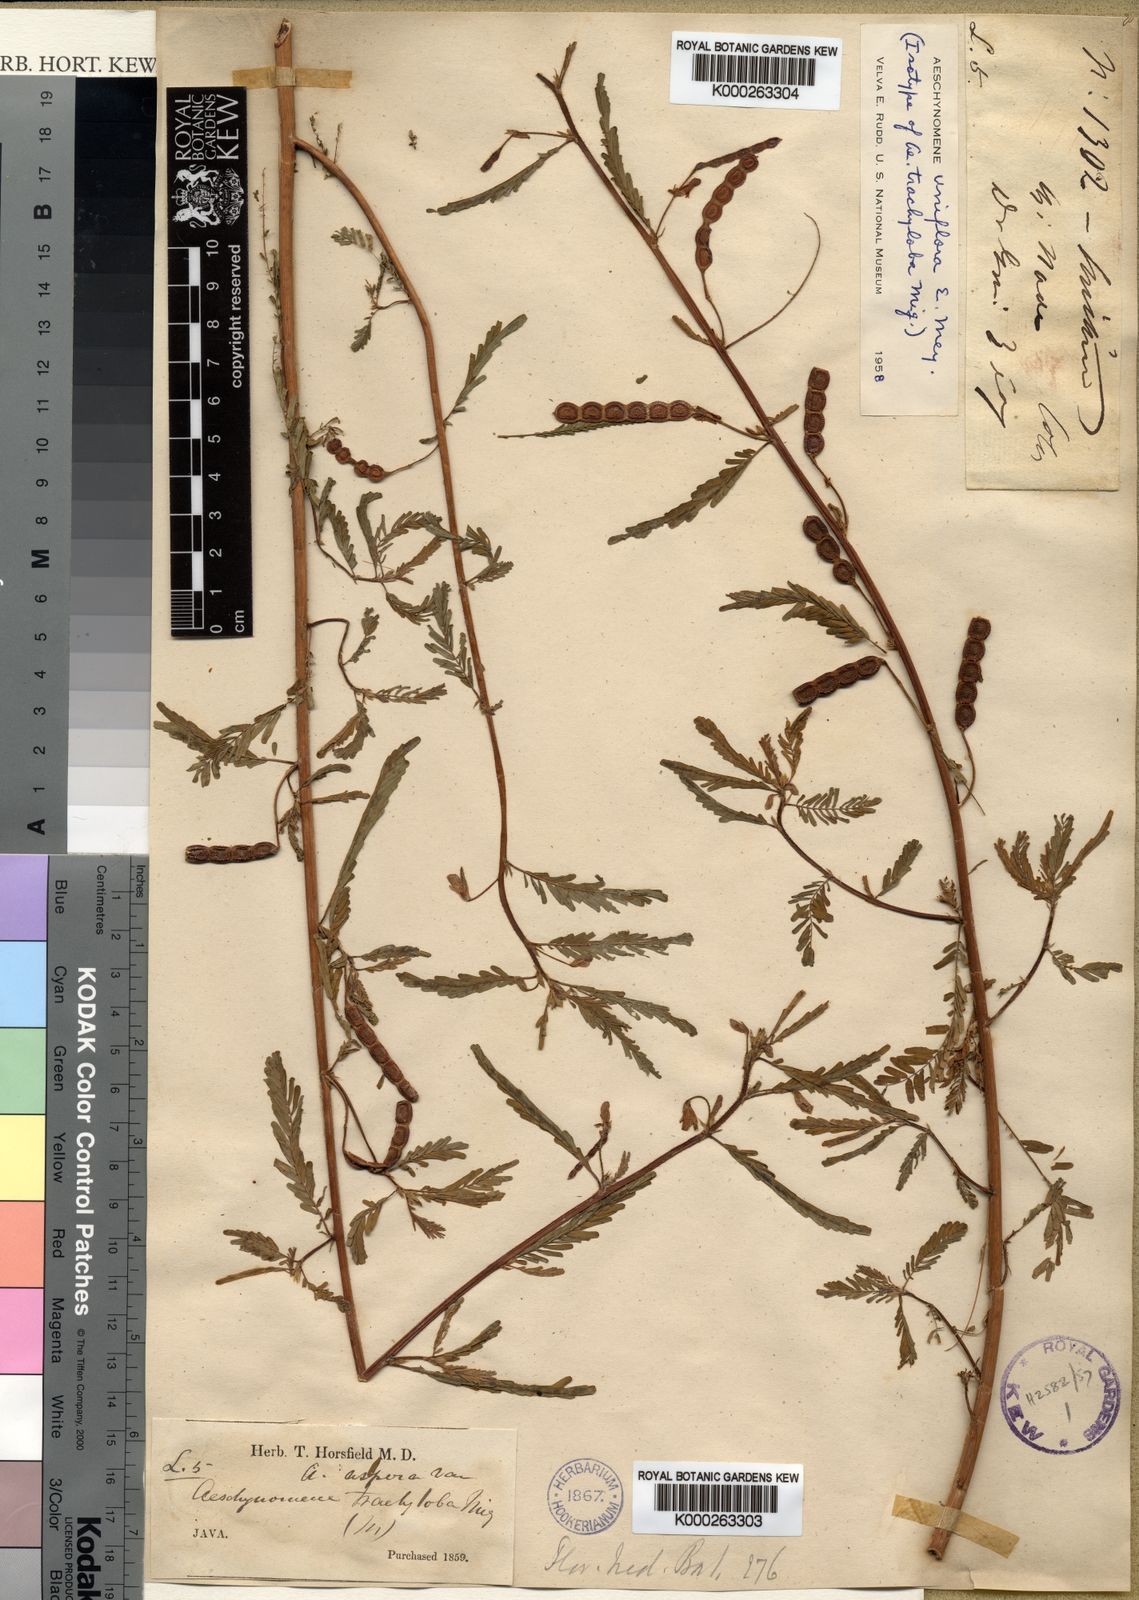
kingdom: Plantae
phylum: Tracheophyta
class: Magnoliopsida
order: Fabales
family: Fabaceae
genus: Aeschynomene
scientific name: Aeschynomene uniflora
